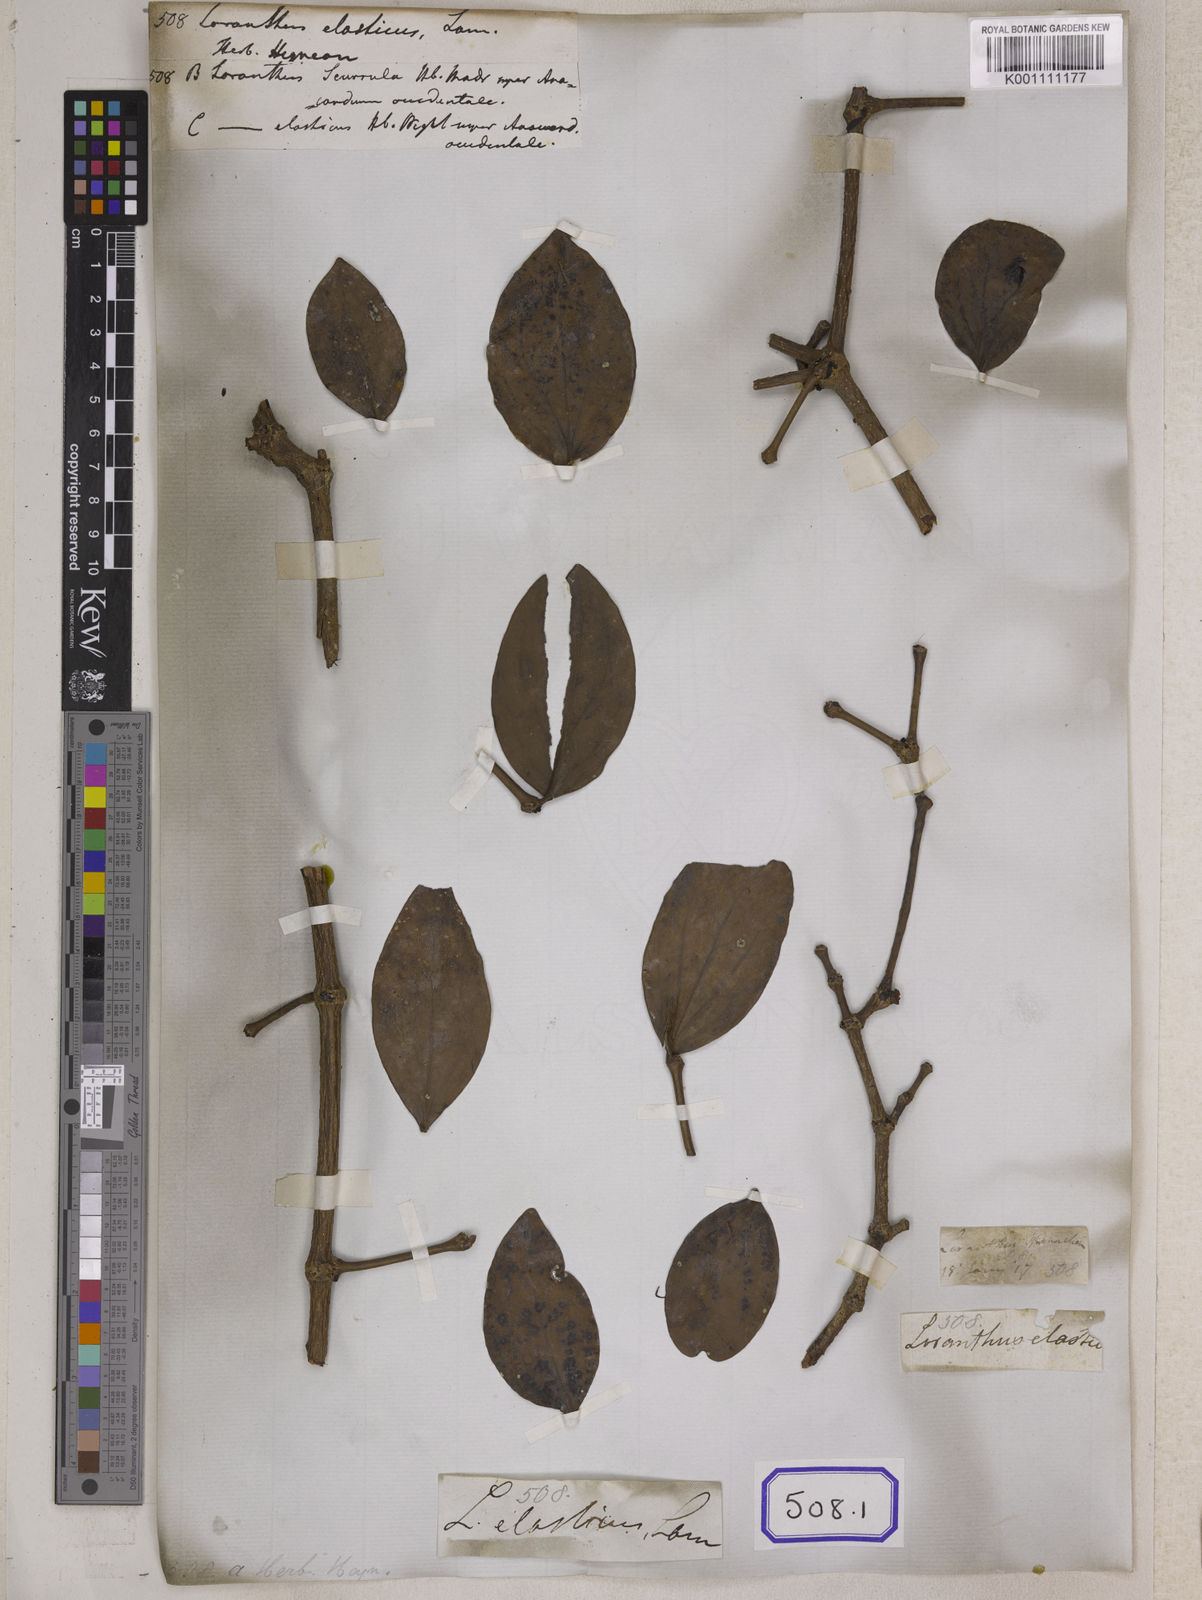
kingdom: Plantae
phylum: Tracheophyta
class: Magnoliopsida
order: Santalales
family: Loranthaceae
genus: Loranthus
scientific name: Loranthus
